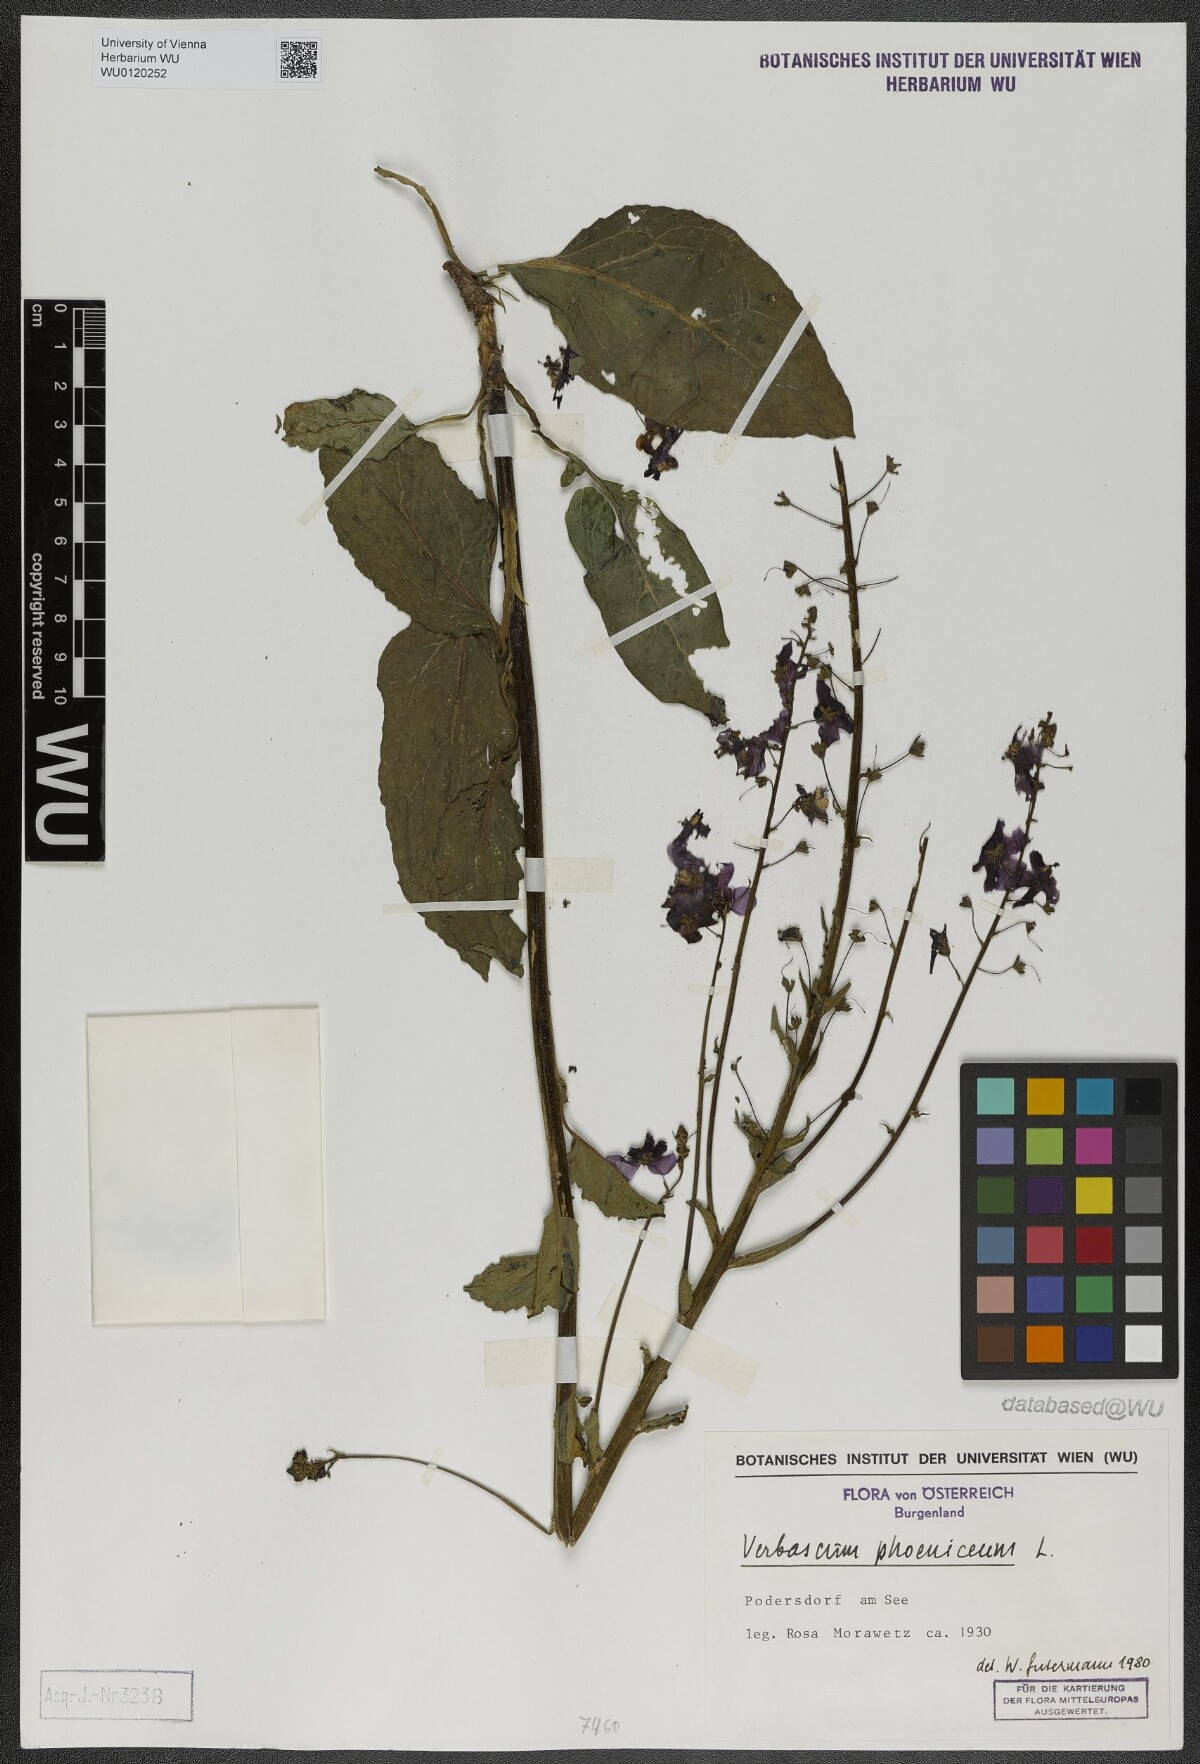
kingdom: Plantae
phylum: Tracheophyta
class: Magnoliopsida
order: Lamiales
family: Scrophulariaceae
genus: Verbascum
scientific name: Verbascum phoeniceum
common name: Purple mullein
